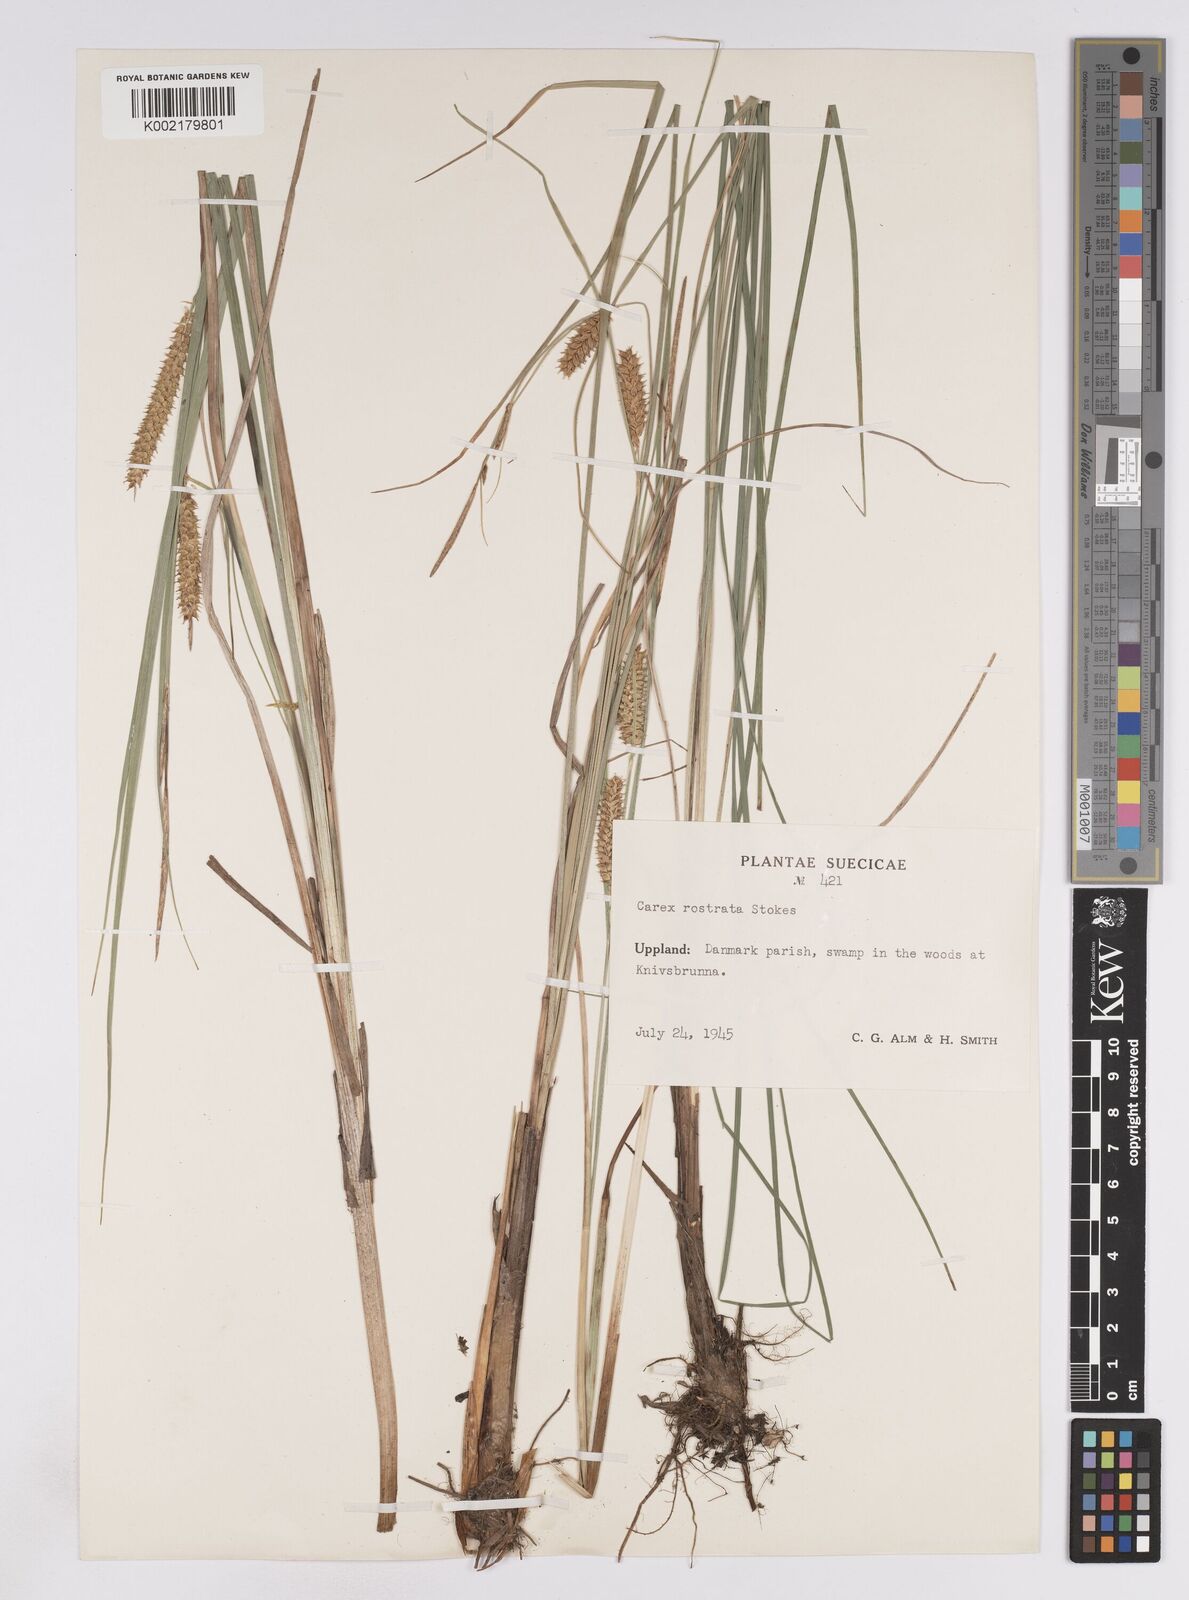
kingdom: Plantae
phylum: Tracheophyta
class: Liliopsida
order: Poales
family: Cyperaceae
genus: Carex
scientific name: Carex rostrata
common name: Bottle sedge
